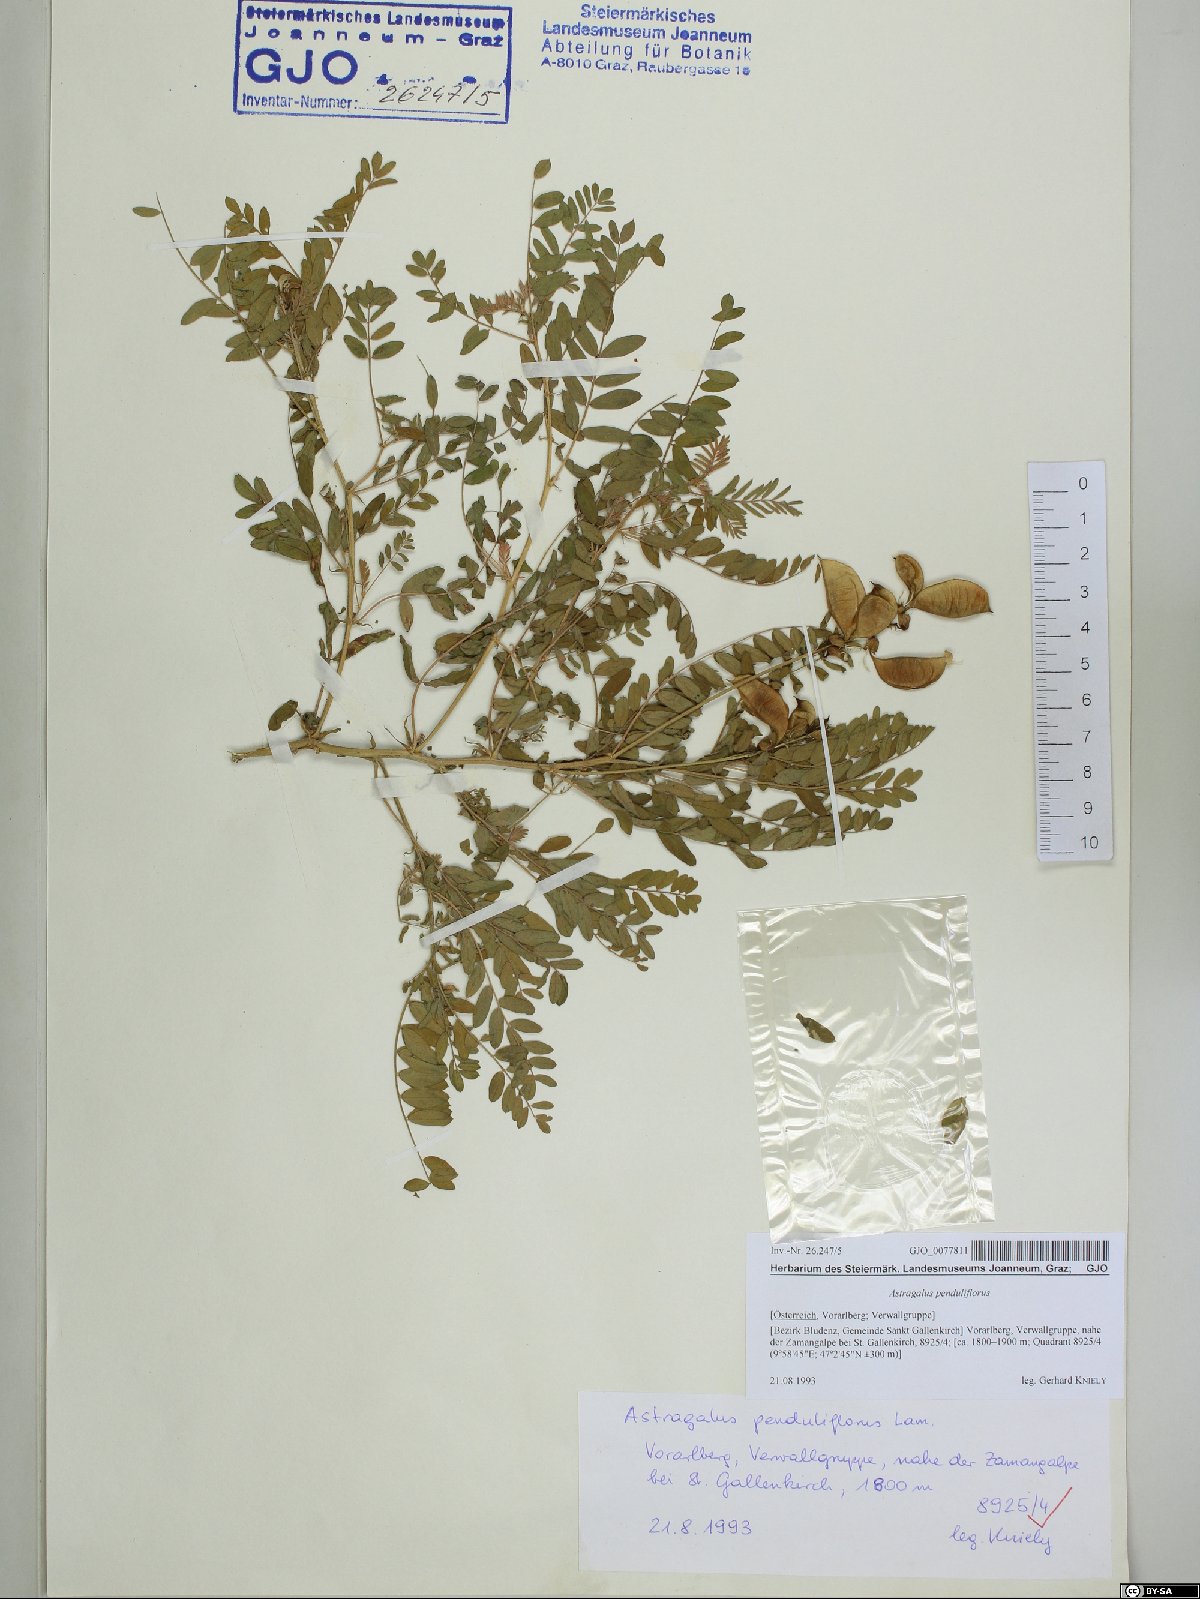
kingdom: Plantae
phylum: Tracheophyta
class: Magnoliopsida
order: Fabales
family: Fabaceae
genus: Astragalus
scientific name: Astragalus penduliflorus
